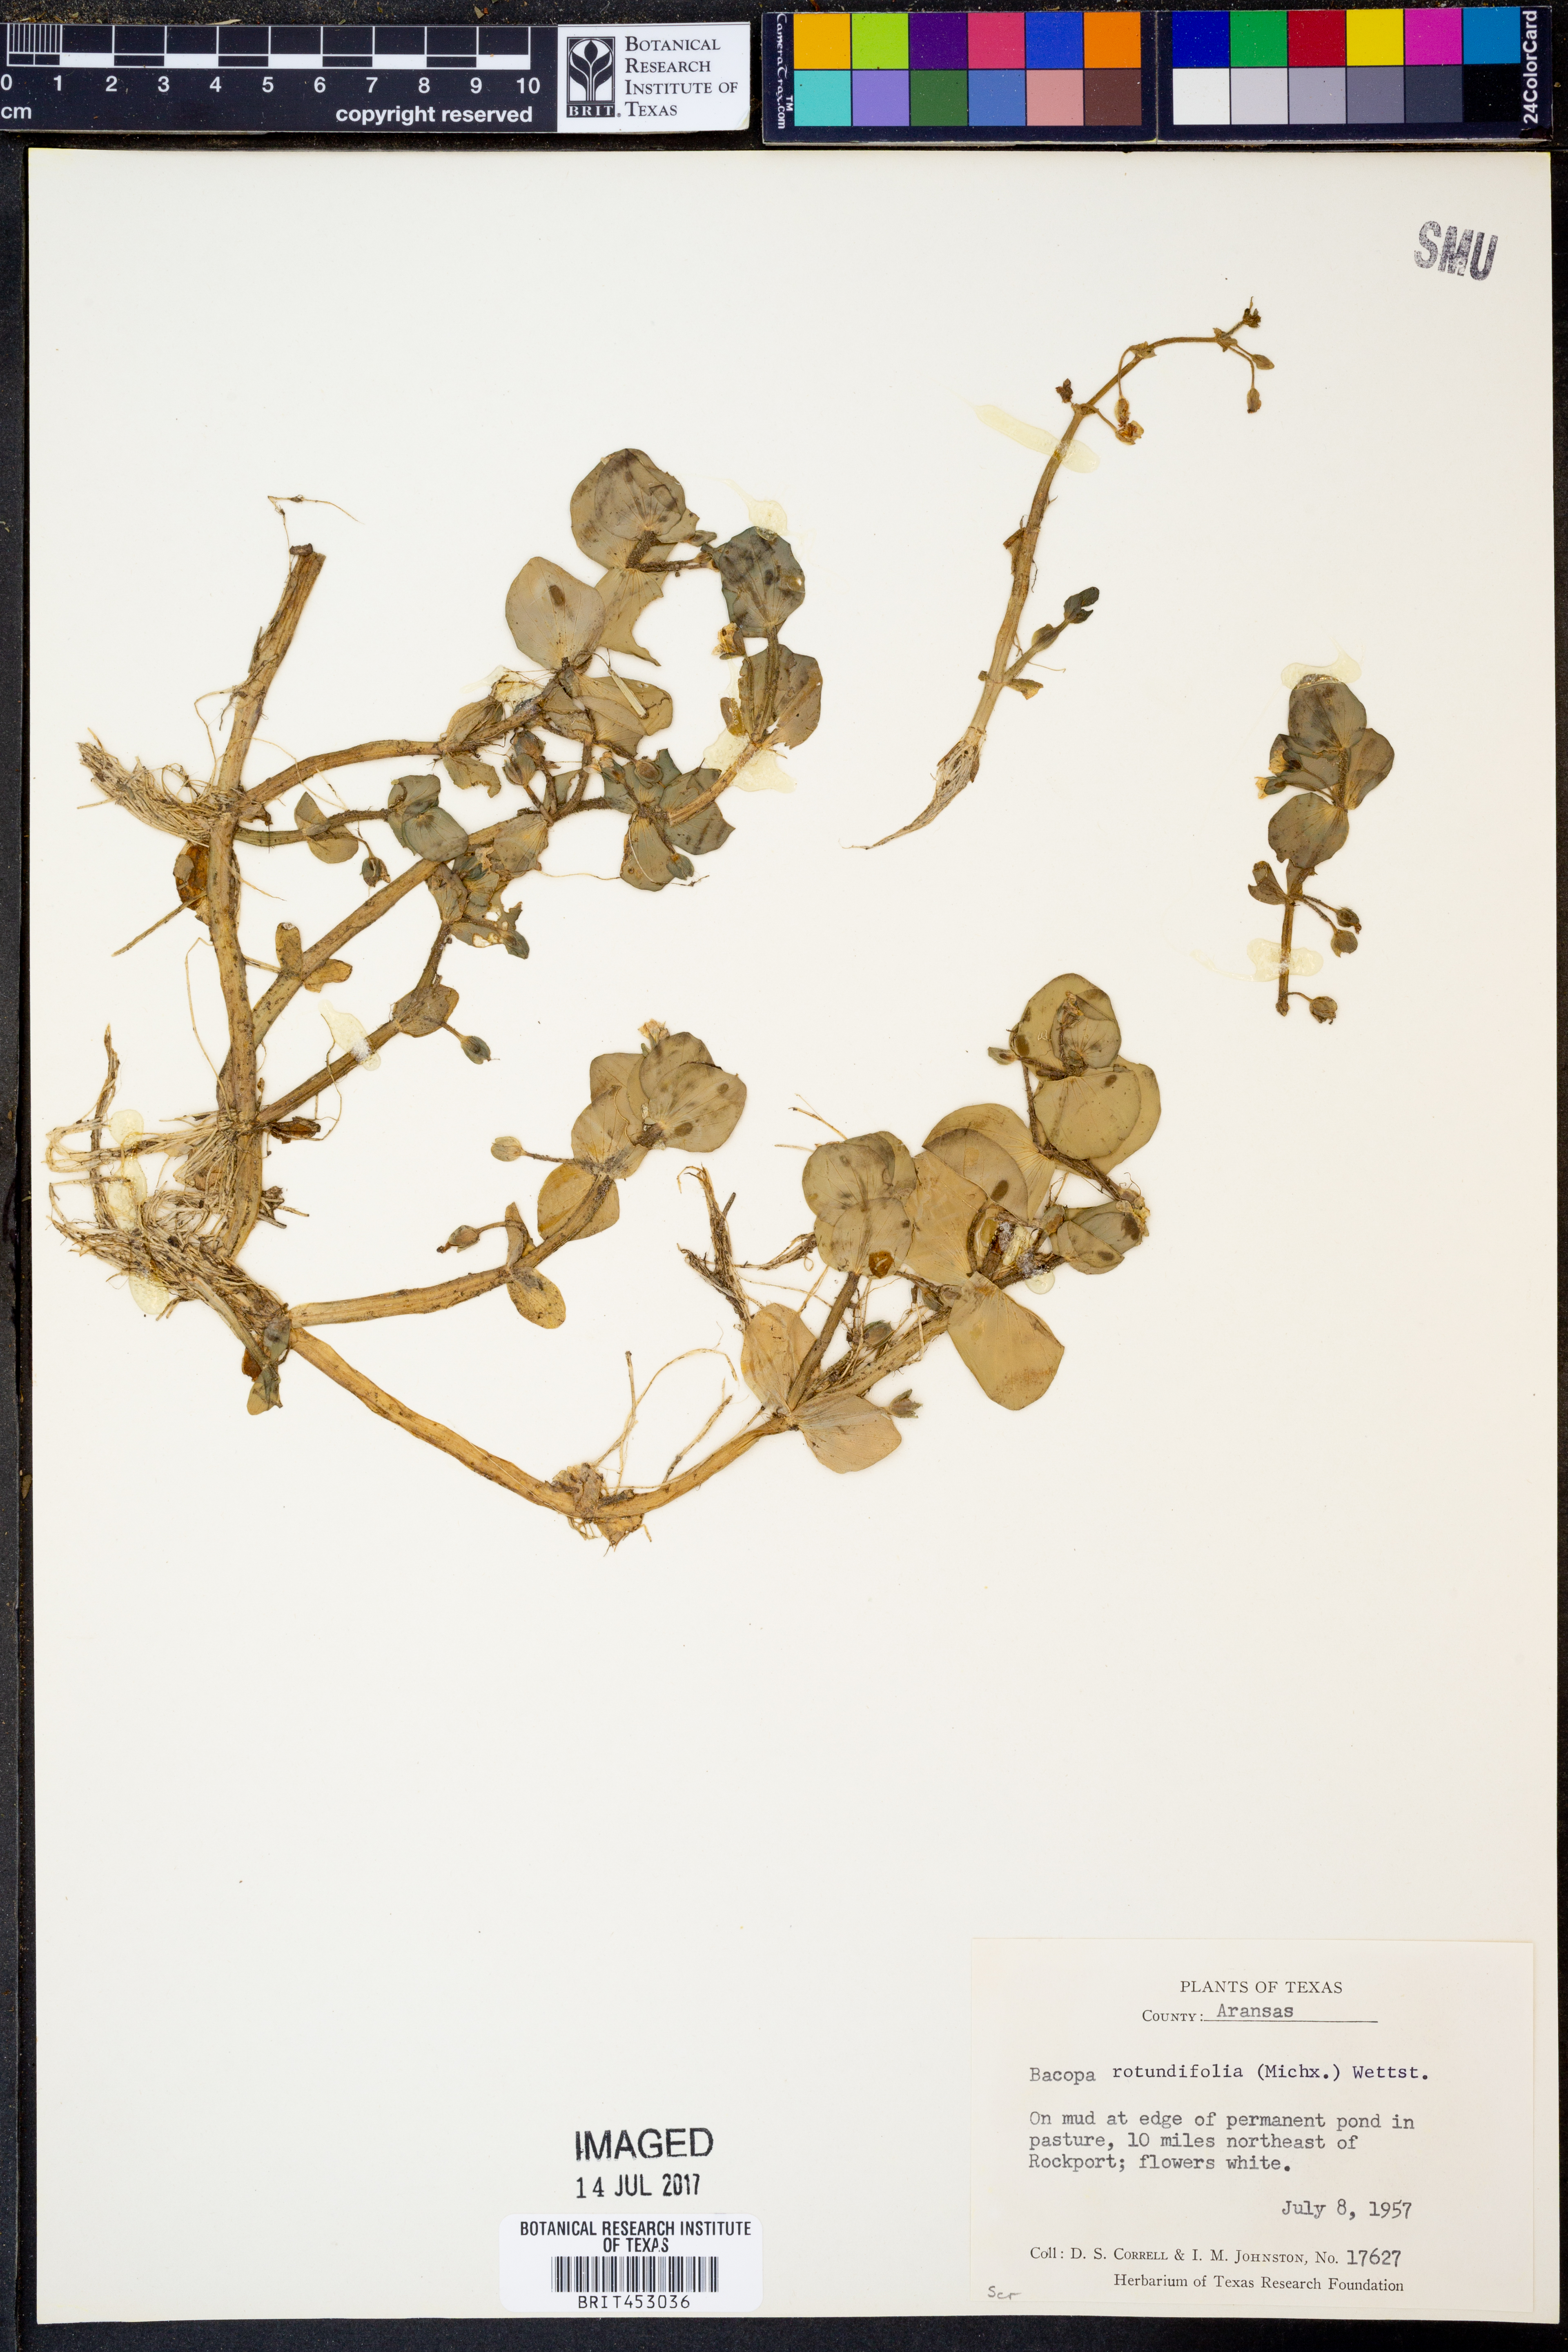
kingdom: Plantae
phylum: Tracheophyta
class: Magnoliopsida
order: Lamiales
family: Plantaginaceae
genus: Bacopa
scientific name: Bacopa rotundifolia
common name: Disc water hyssop
